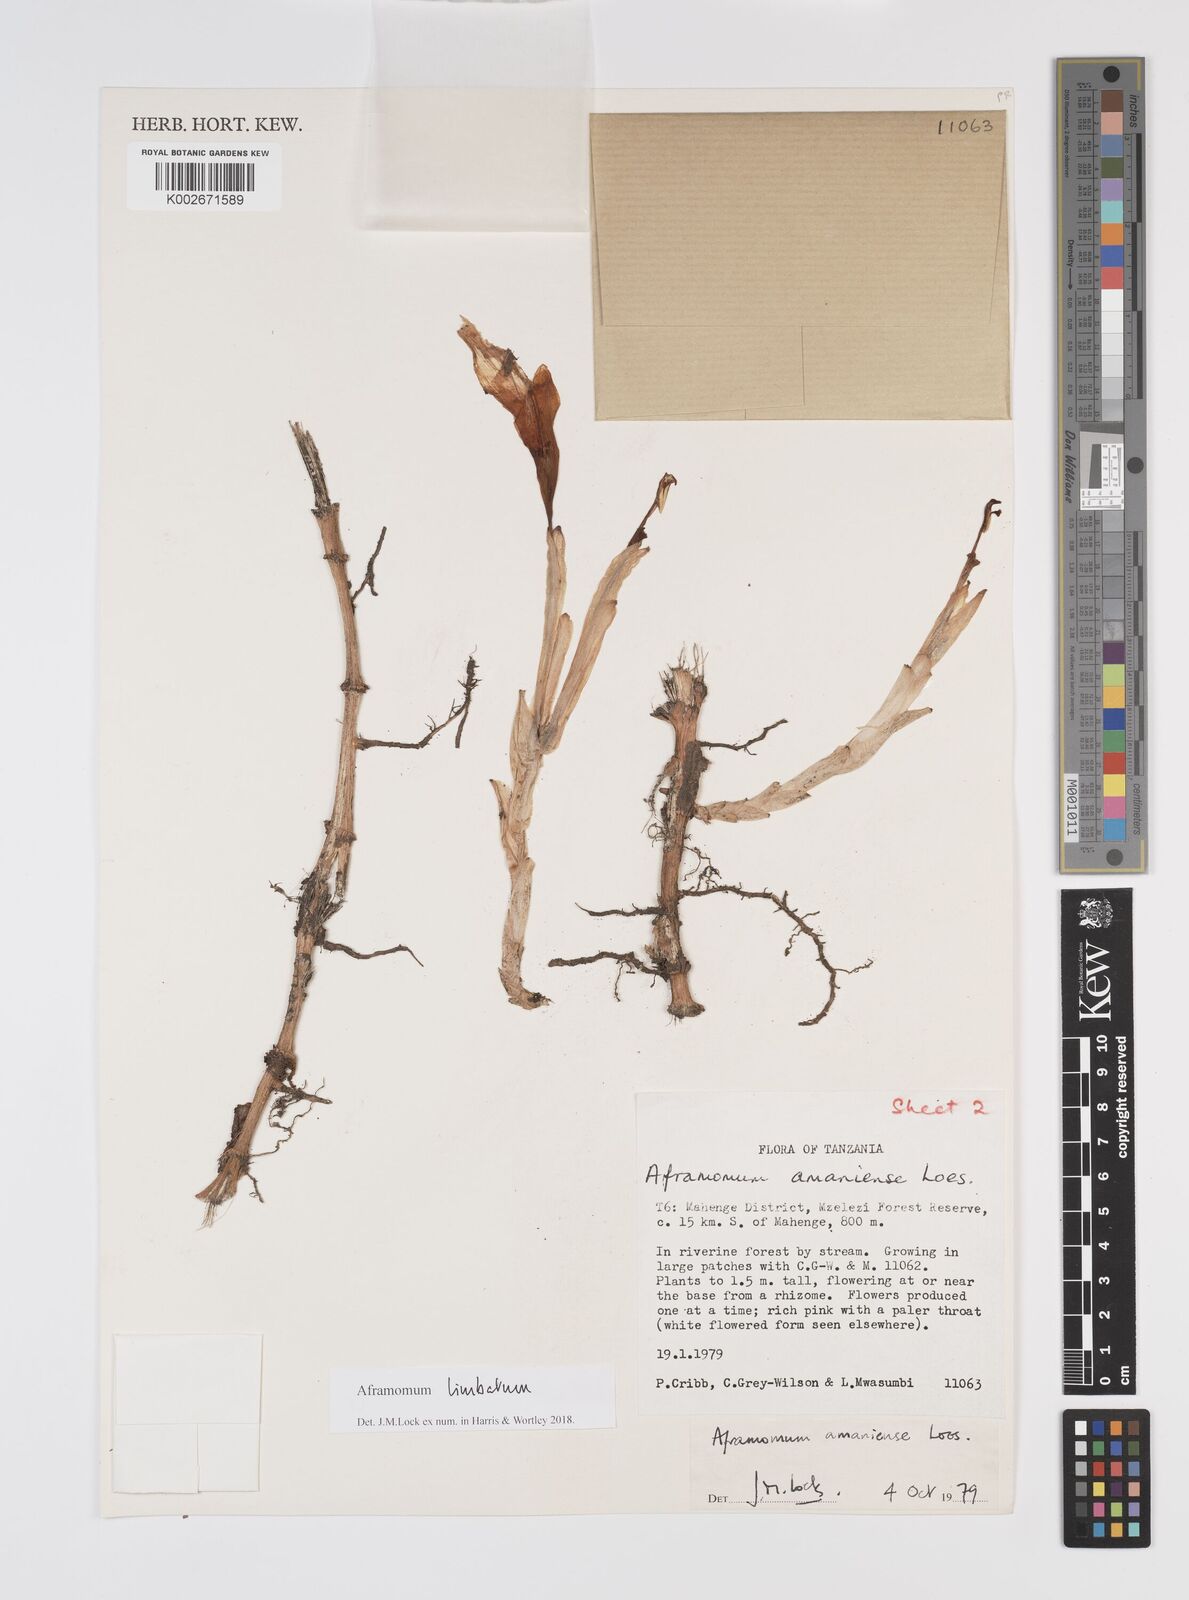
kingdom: Plantae
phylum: Tracheophyta
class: Liliopsida
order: Zingiberales
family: Zingiberaceae
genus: Aframomum
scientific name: Aframomum limbatum
